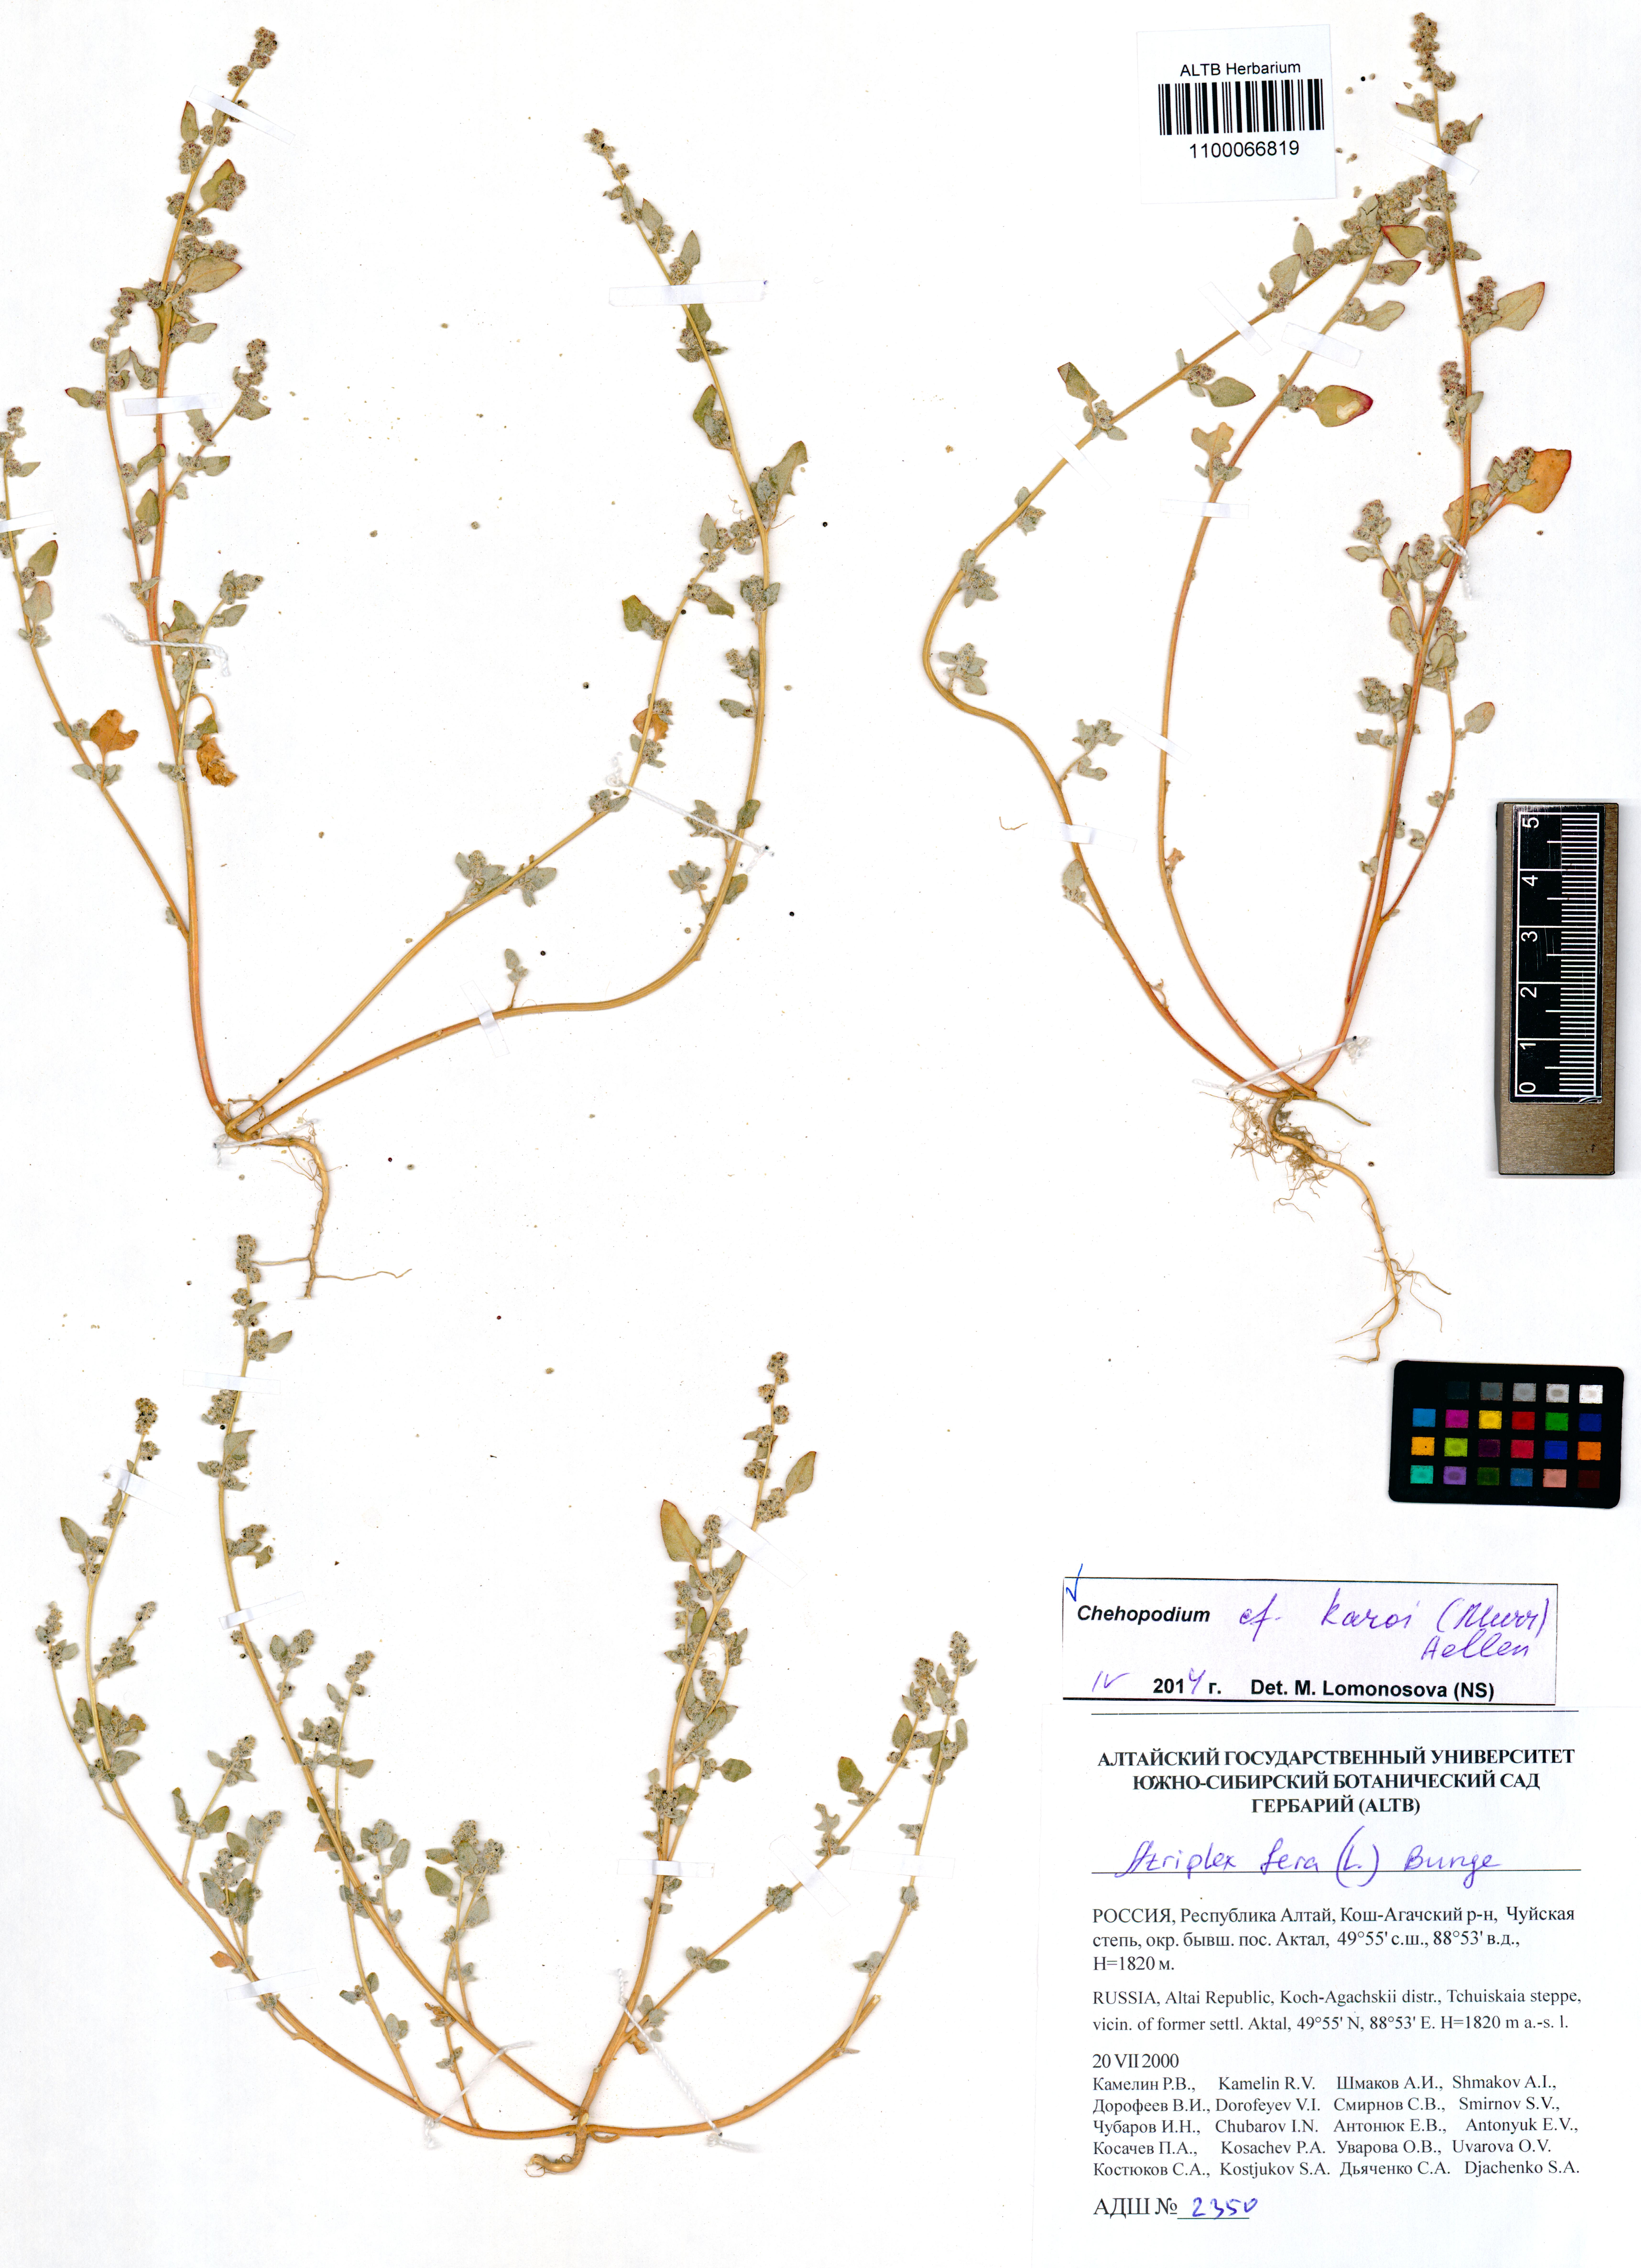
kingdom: Plantae
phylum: Tracheophyta
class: Magnoliopsida
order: Caryophyllales
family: Amaranthaceae
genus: Chenopodium
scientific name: Chenopodium karoi
